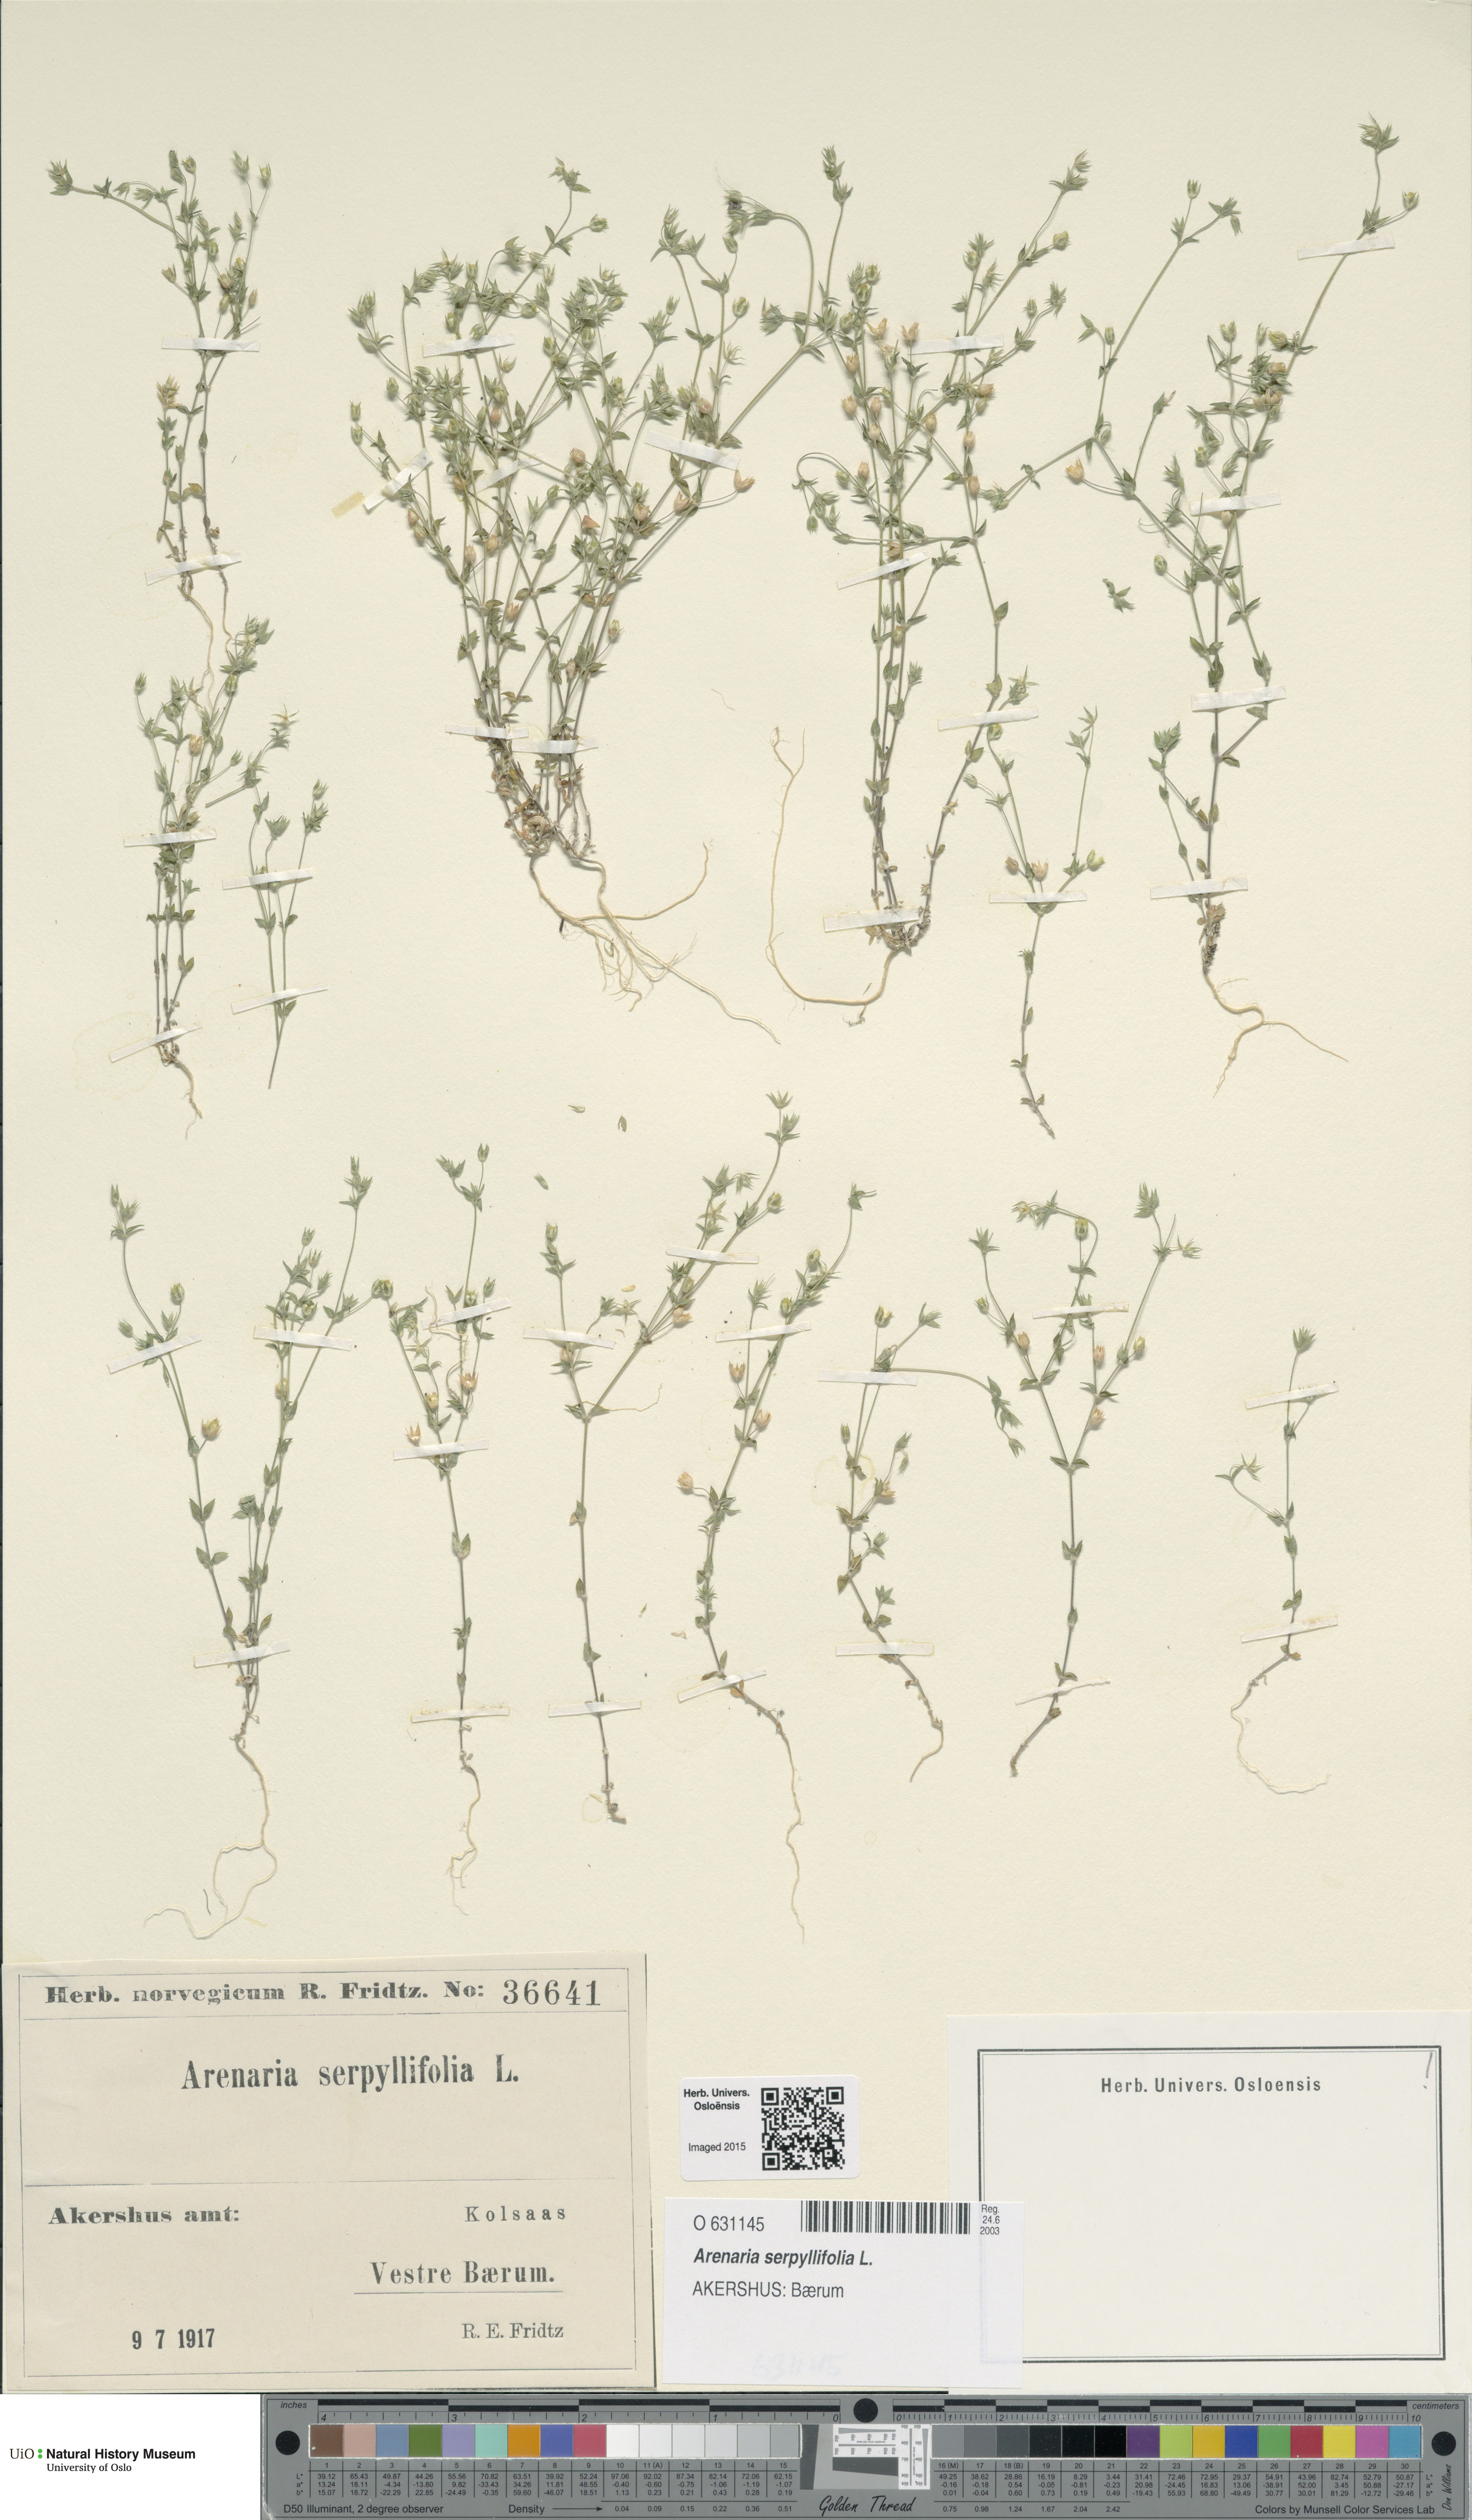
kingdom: Plantae
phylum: Tracheophyta
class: Magnoliopsida
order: Caryophyllales
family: Caryophyllaceae
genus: Arenaria
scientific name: Arenaria serpyllifolia
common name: Thyme-leaved sandwort
